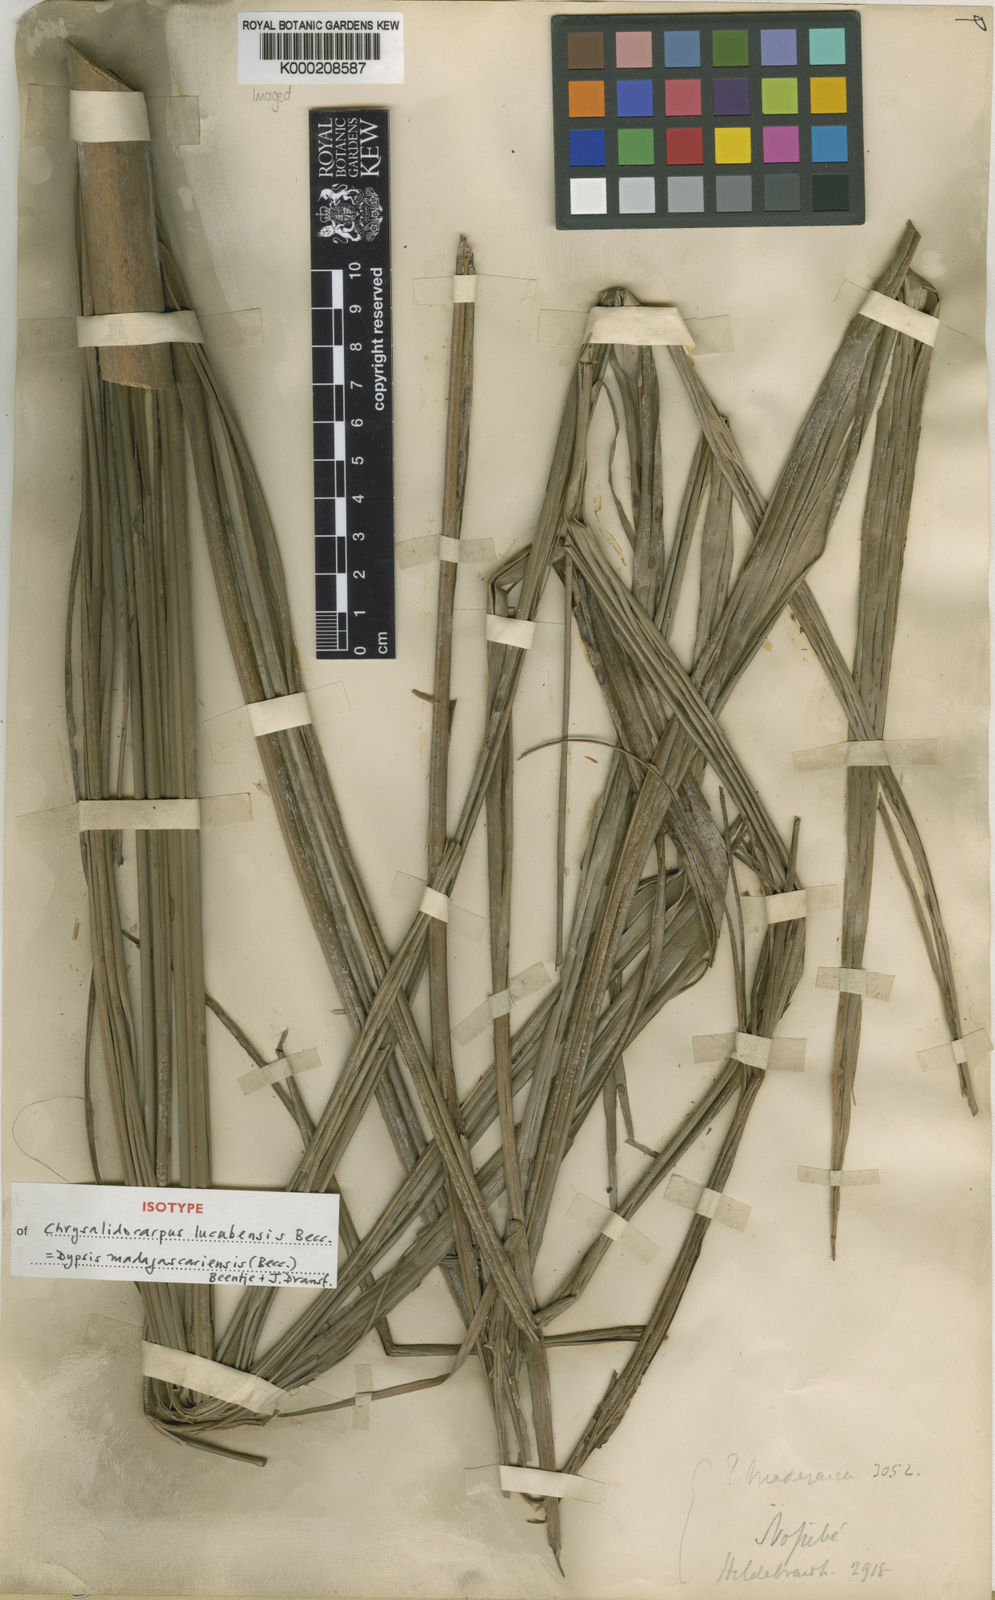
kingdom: Plantae
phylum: Tracheophyta
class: Liliopsida
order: Arecales
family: Arecaceae
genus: Dypsis
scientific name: Dypsis madagascariensis
